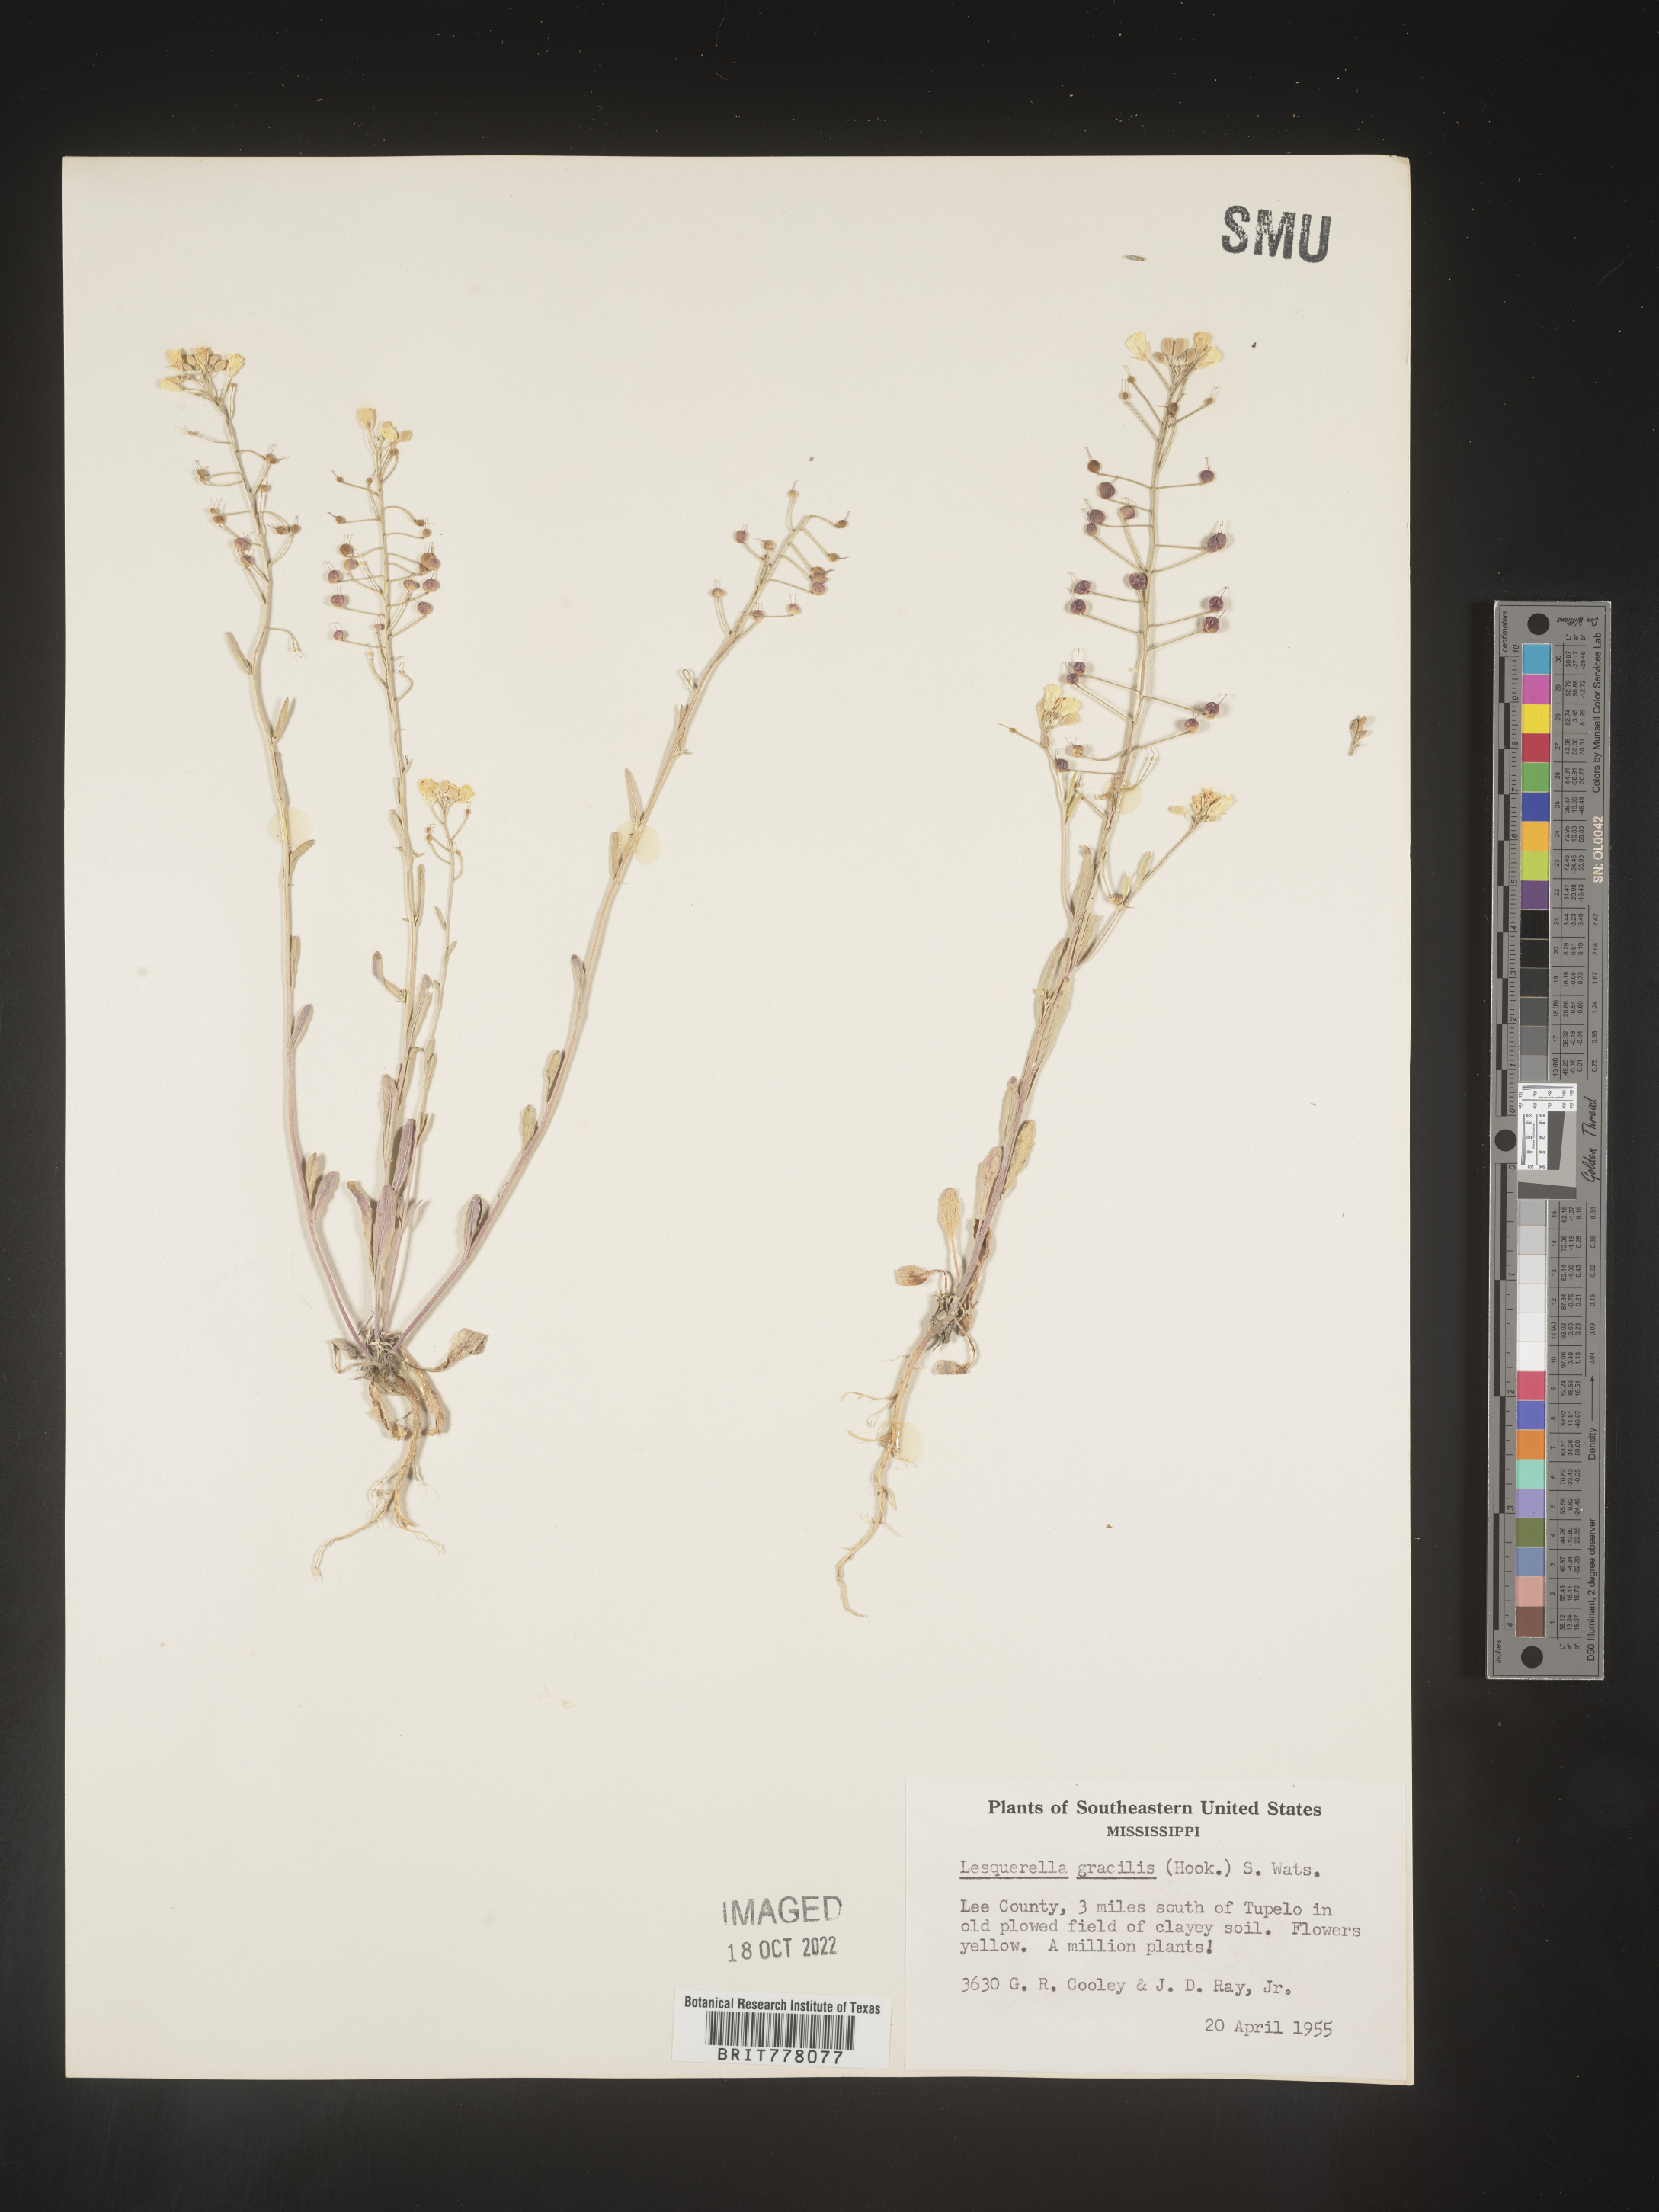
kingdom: Chromista
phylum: Cercozoa
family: Psammonobiotidae
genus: Lesquerella
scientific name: Lesquerella
